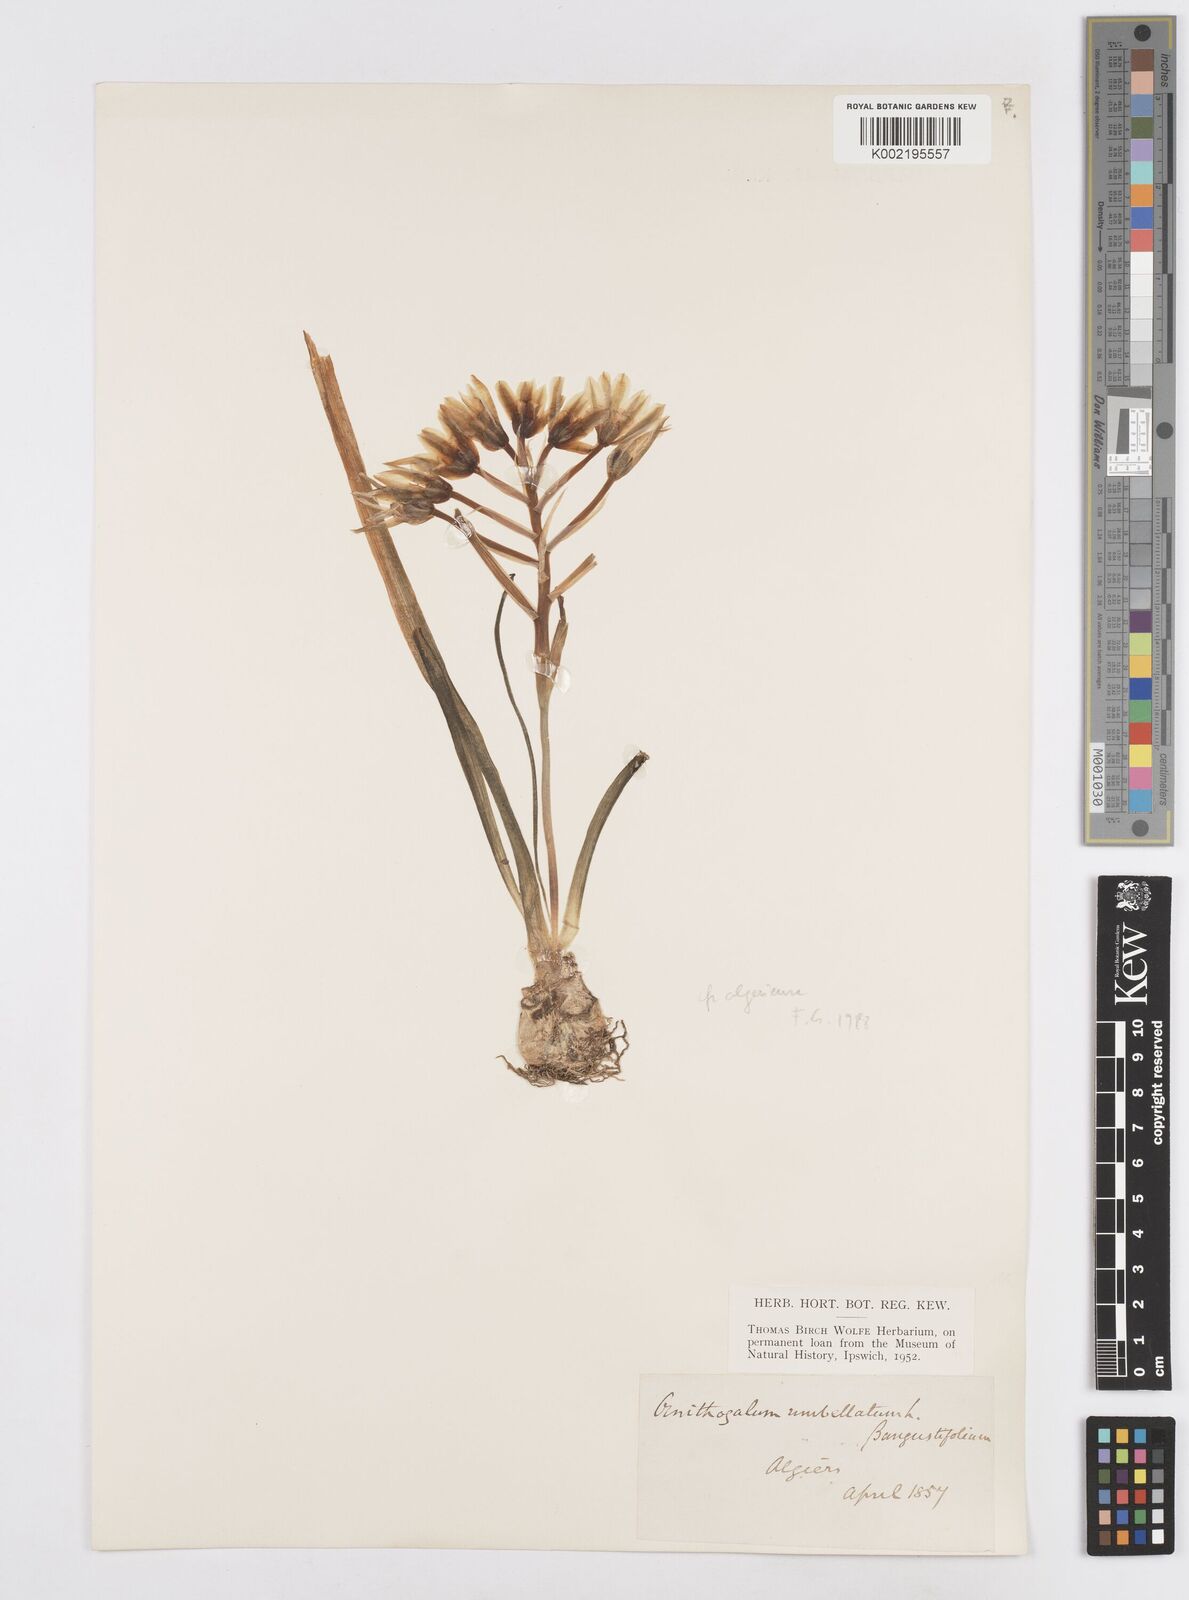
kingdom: Plantae
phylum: Tracheophyta
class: Liliopsida
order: Asparagales
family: Asparagaceae
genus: Ornithogalum
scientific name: Ornithogalum umbellatum
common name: Garden star-of-bethlehem
